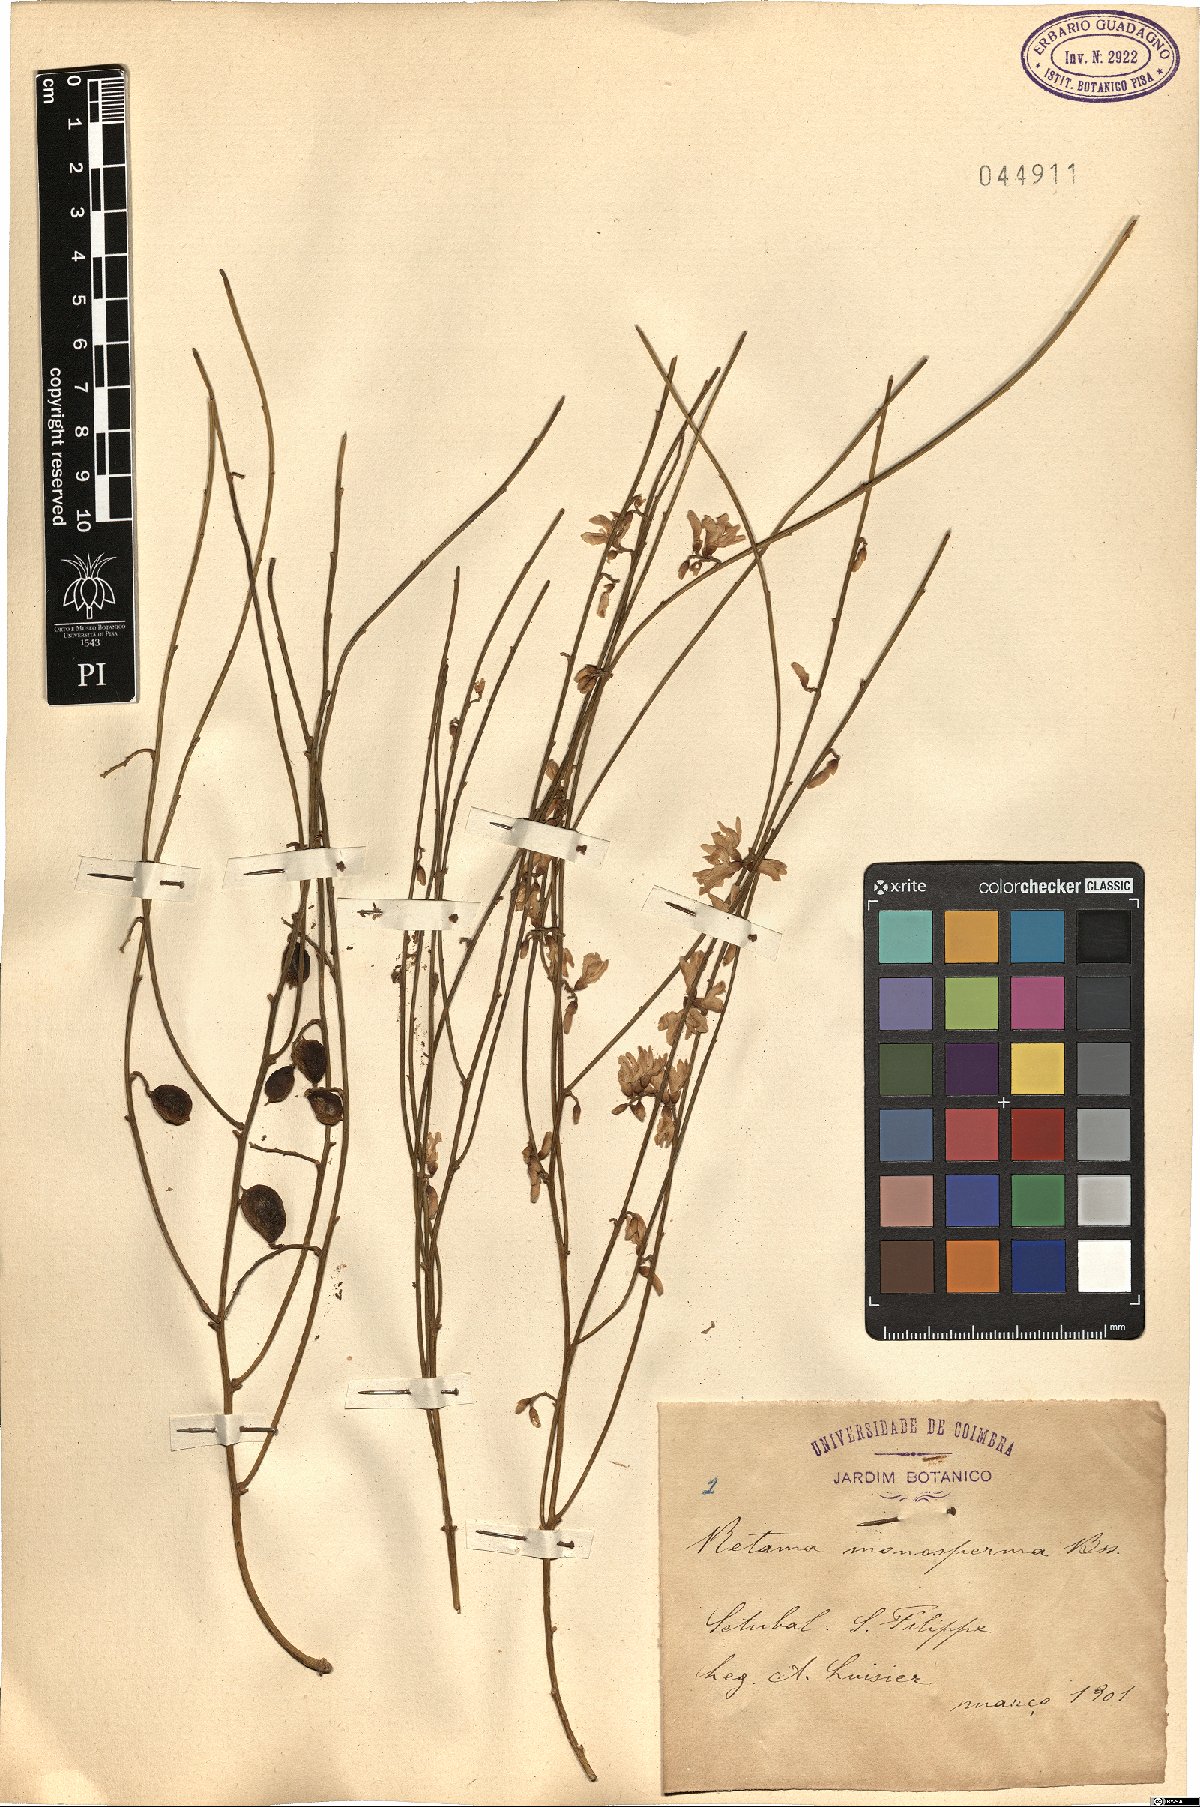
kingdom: Plantae
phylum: Tracheophyta
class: Magnoliopsida
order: Fabales
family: Fabaceae
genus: Retama
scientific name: Retama monosperma
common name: Bridal broom
